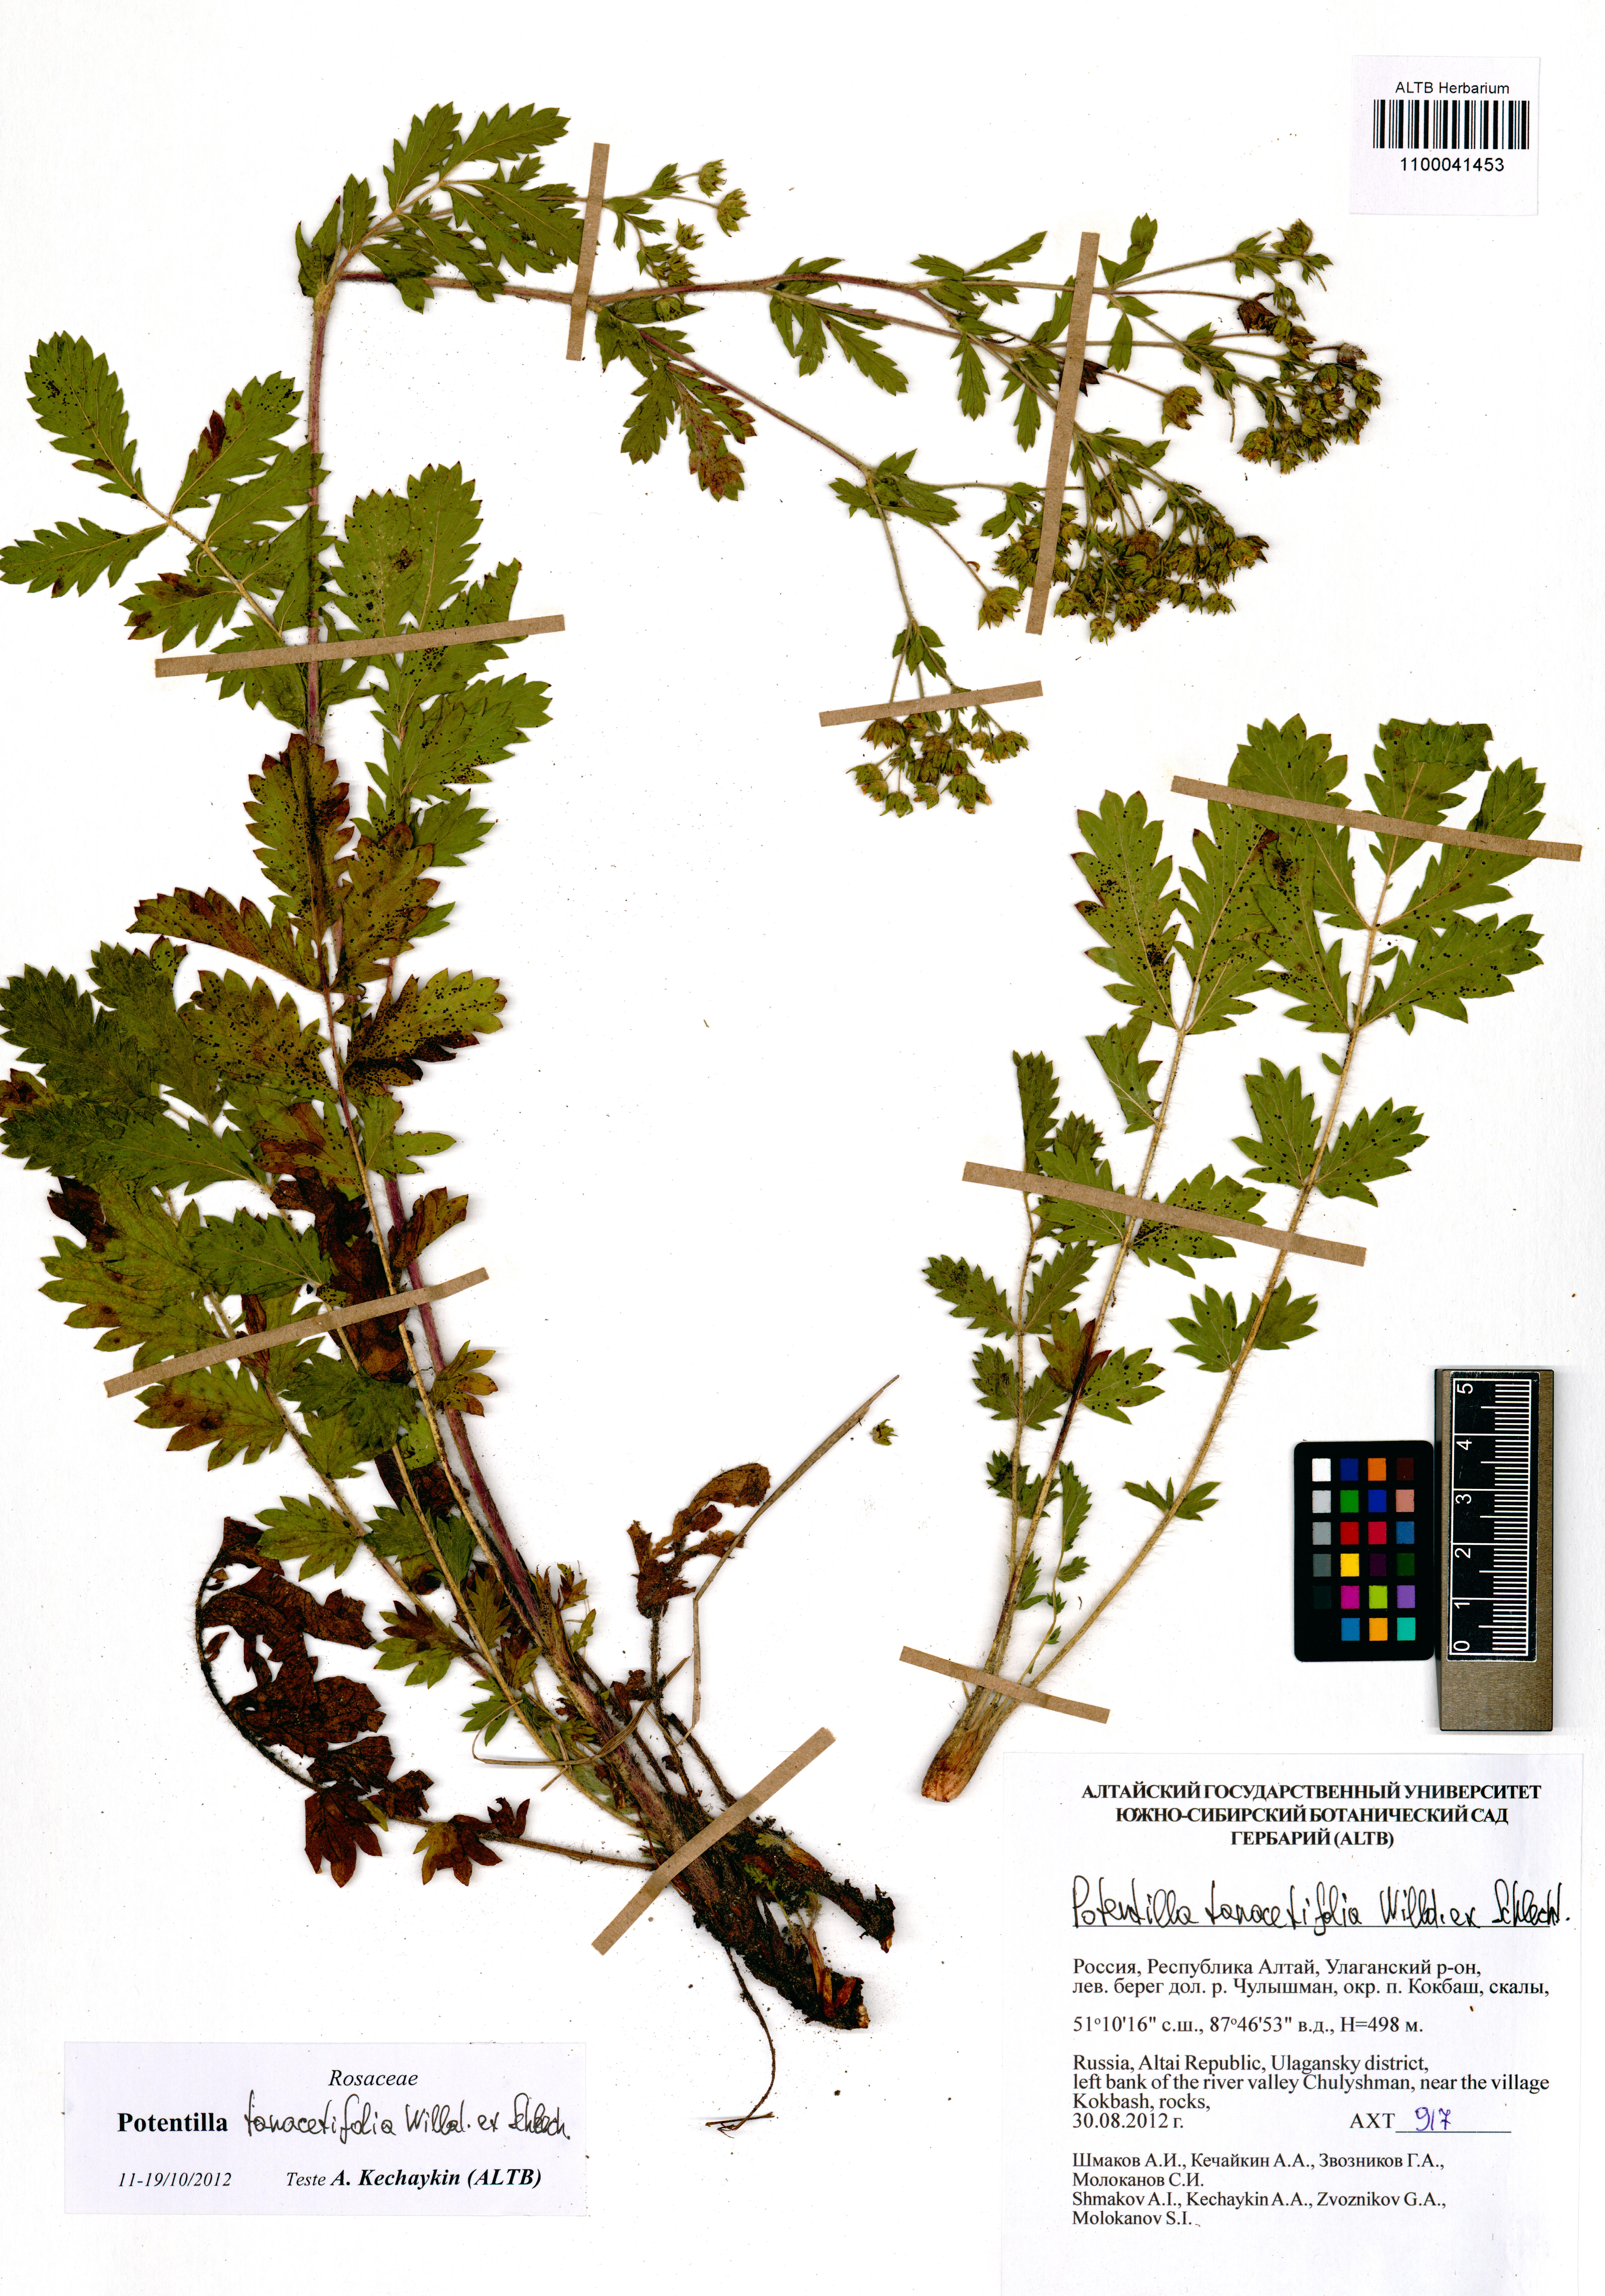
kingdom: Plantae
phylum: Tracheophyta
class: Magnoliopsida
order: Rosales
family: Rosaceae
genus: Potentilla
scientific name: Potentilla tanacetifolia
